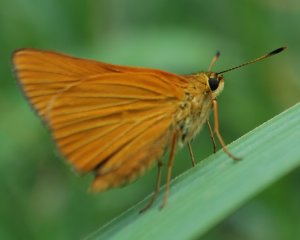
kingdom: Animalia
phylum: Arthropoda
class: Insecta
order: Lepidoptera
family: Hesperiidae
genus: Problema
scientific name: Problema bulenta
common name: Rare Skipper
